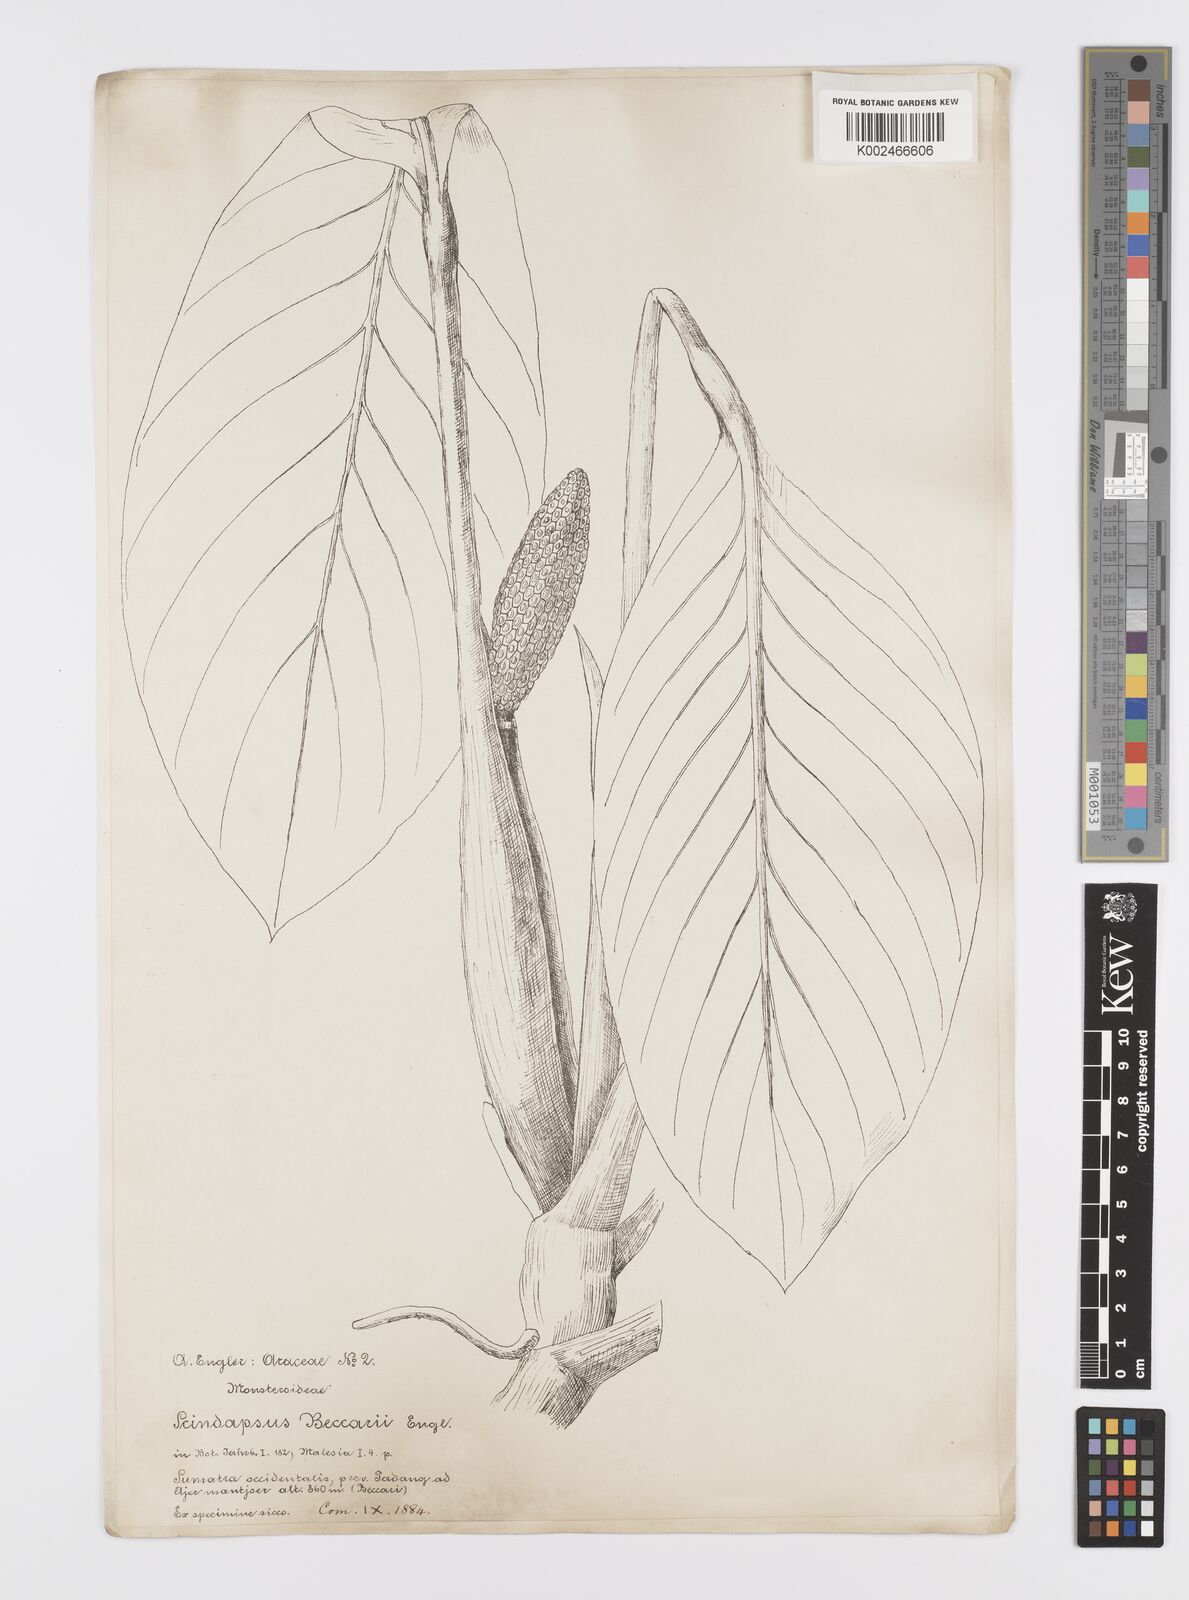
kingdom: Plantae
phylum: Tracheophyta
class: Liliopsida
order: Alismatales
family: Araceae
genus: Scindapsus
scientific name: Scindapsus beccarii
